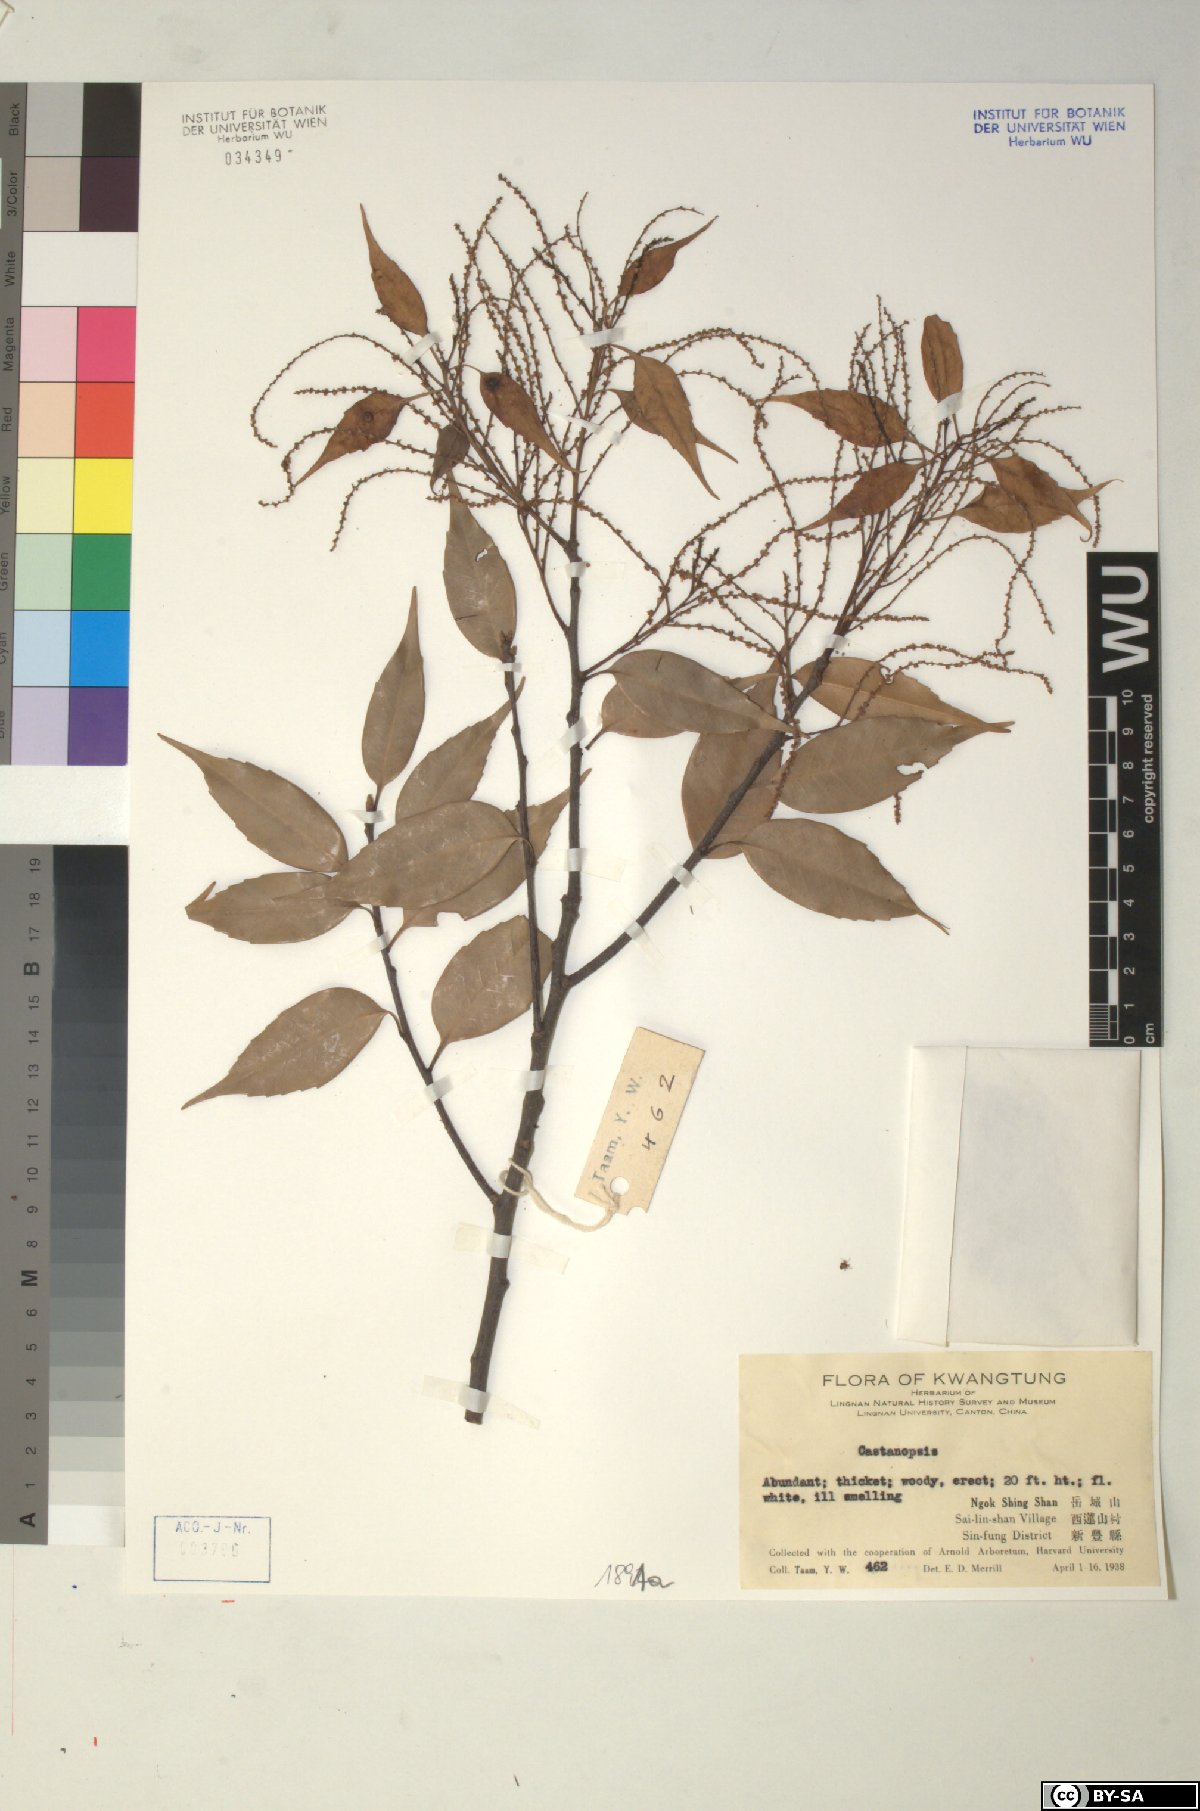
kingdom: Plantae
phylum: Tracheophyta
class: Magnoliopsida
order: Fagales
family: Fagaceae
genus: Castanopsis
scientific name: Castanopsis
